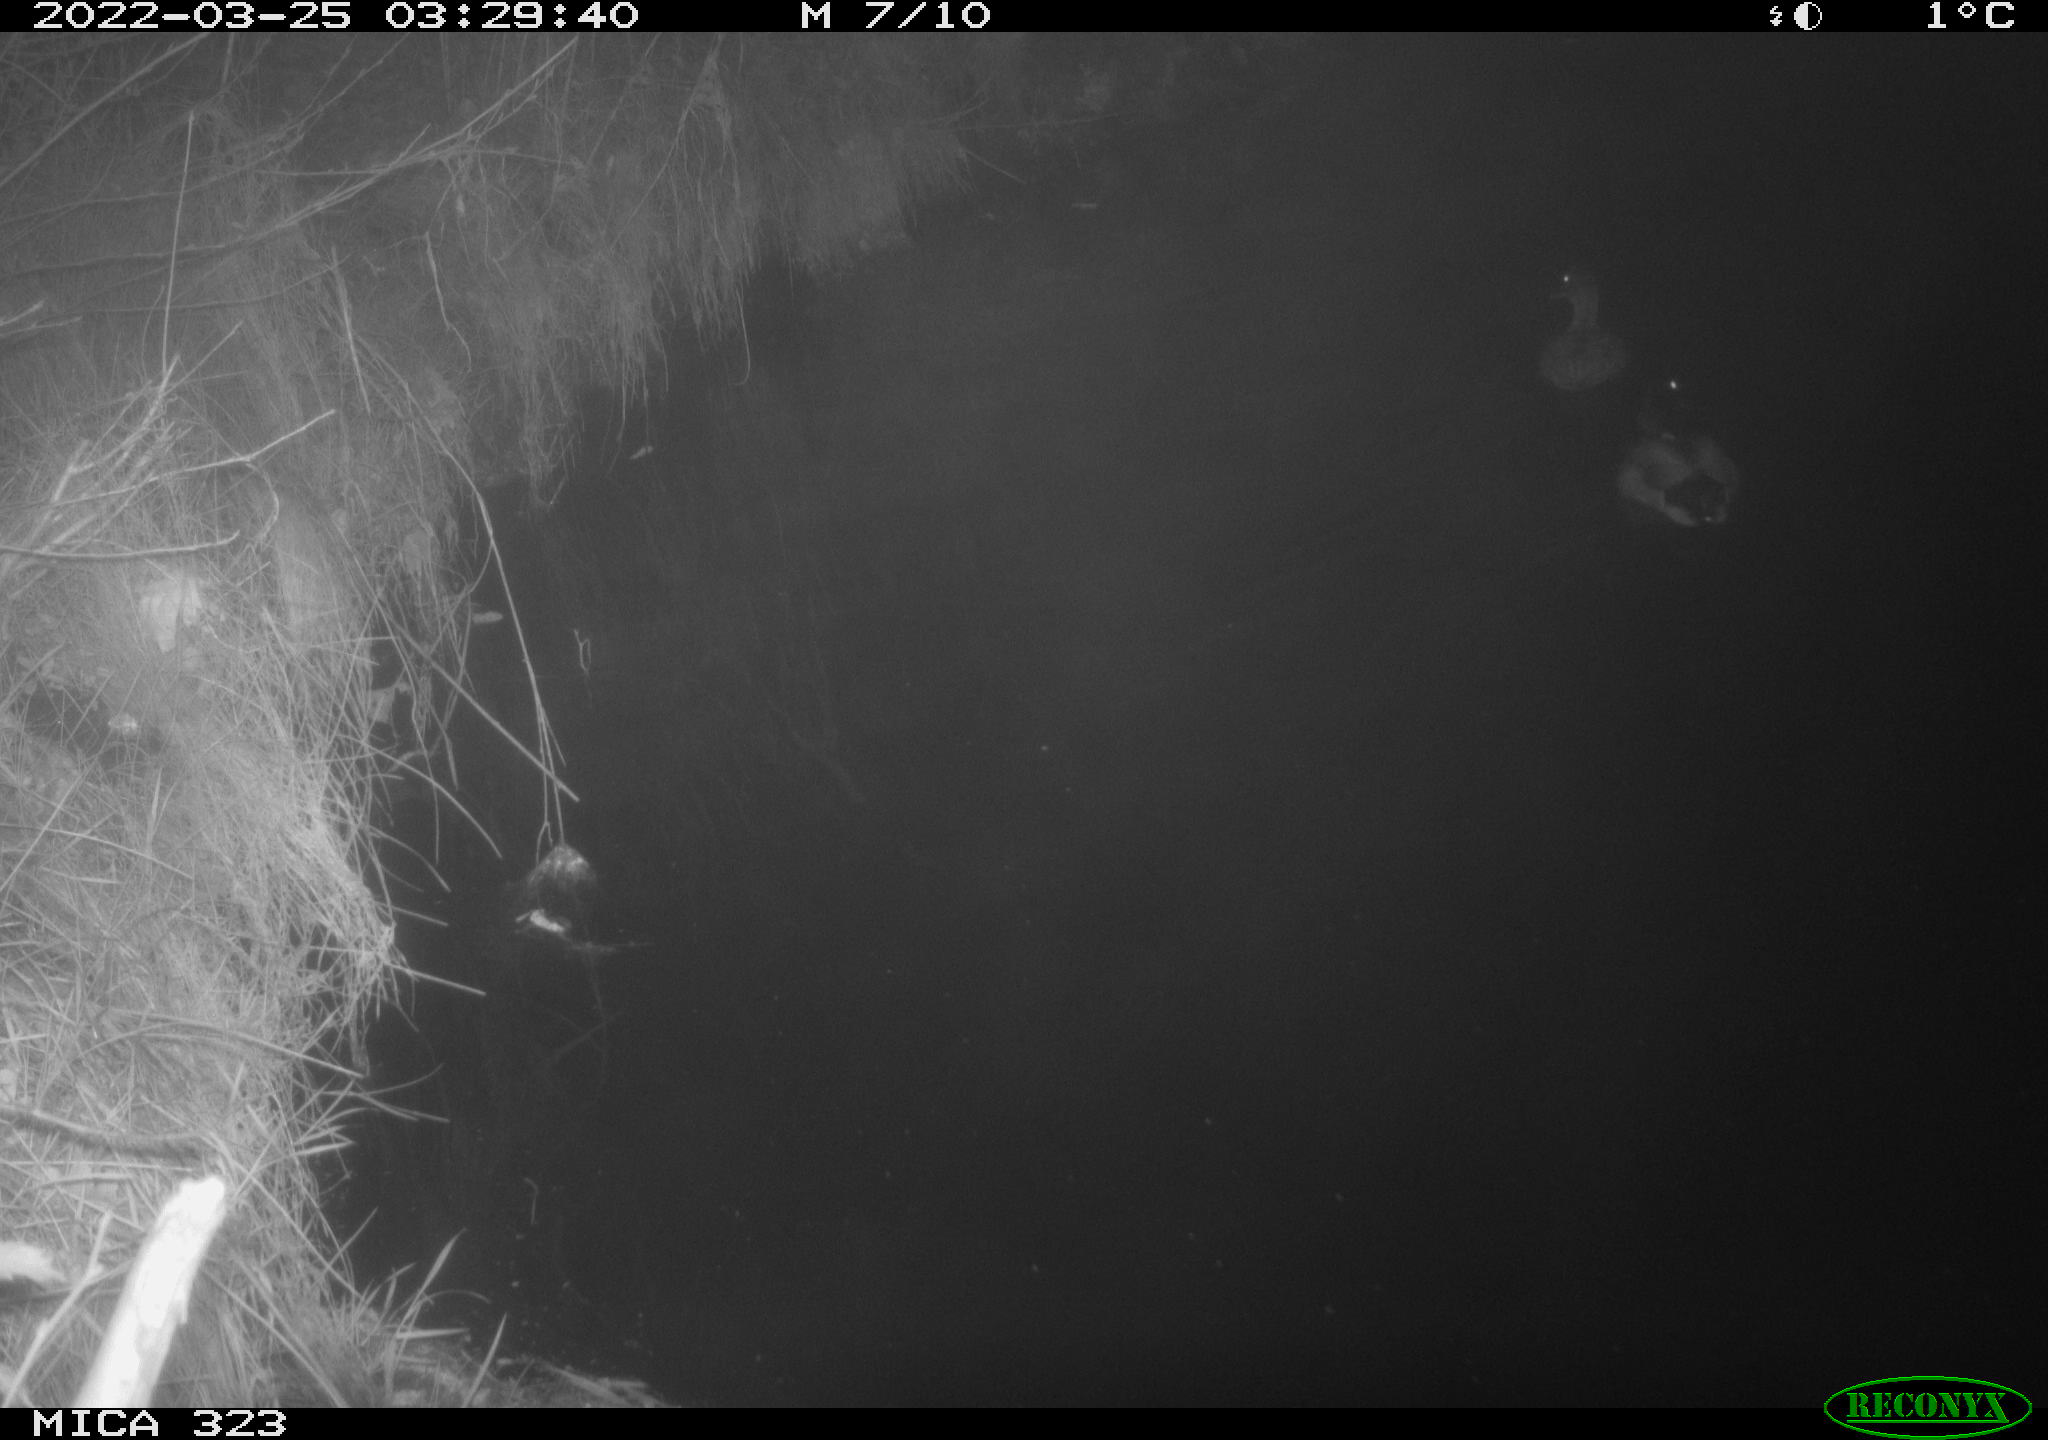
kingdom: Animalia
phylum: Chordata
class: Aves
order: Anseriformes
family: Anatidae
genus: Anas
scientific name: Anas platyrhynchos
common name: Mallard
